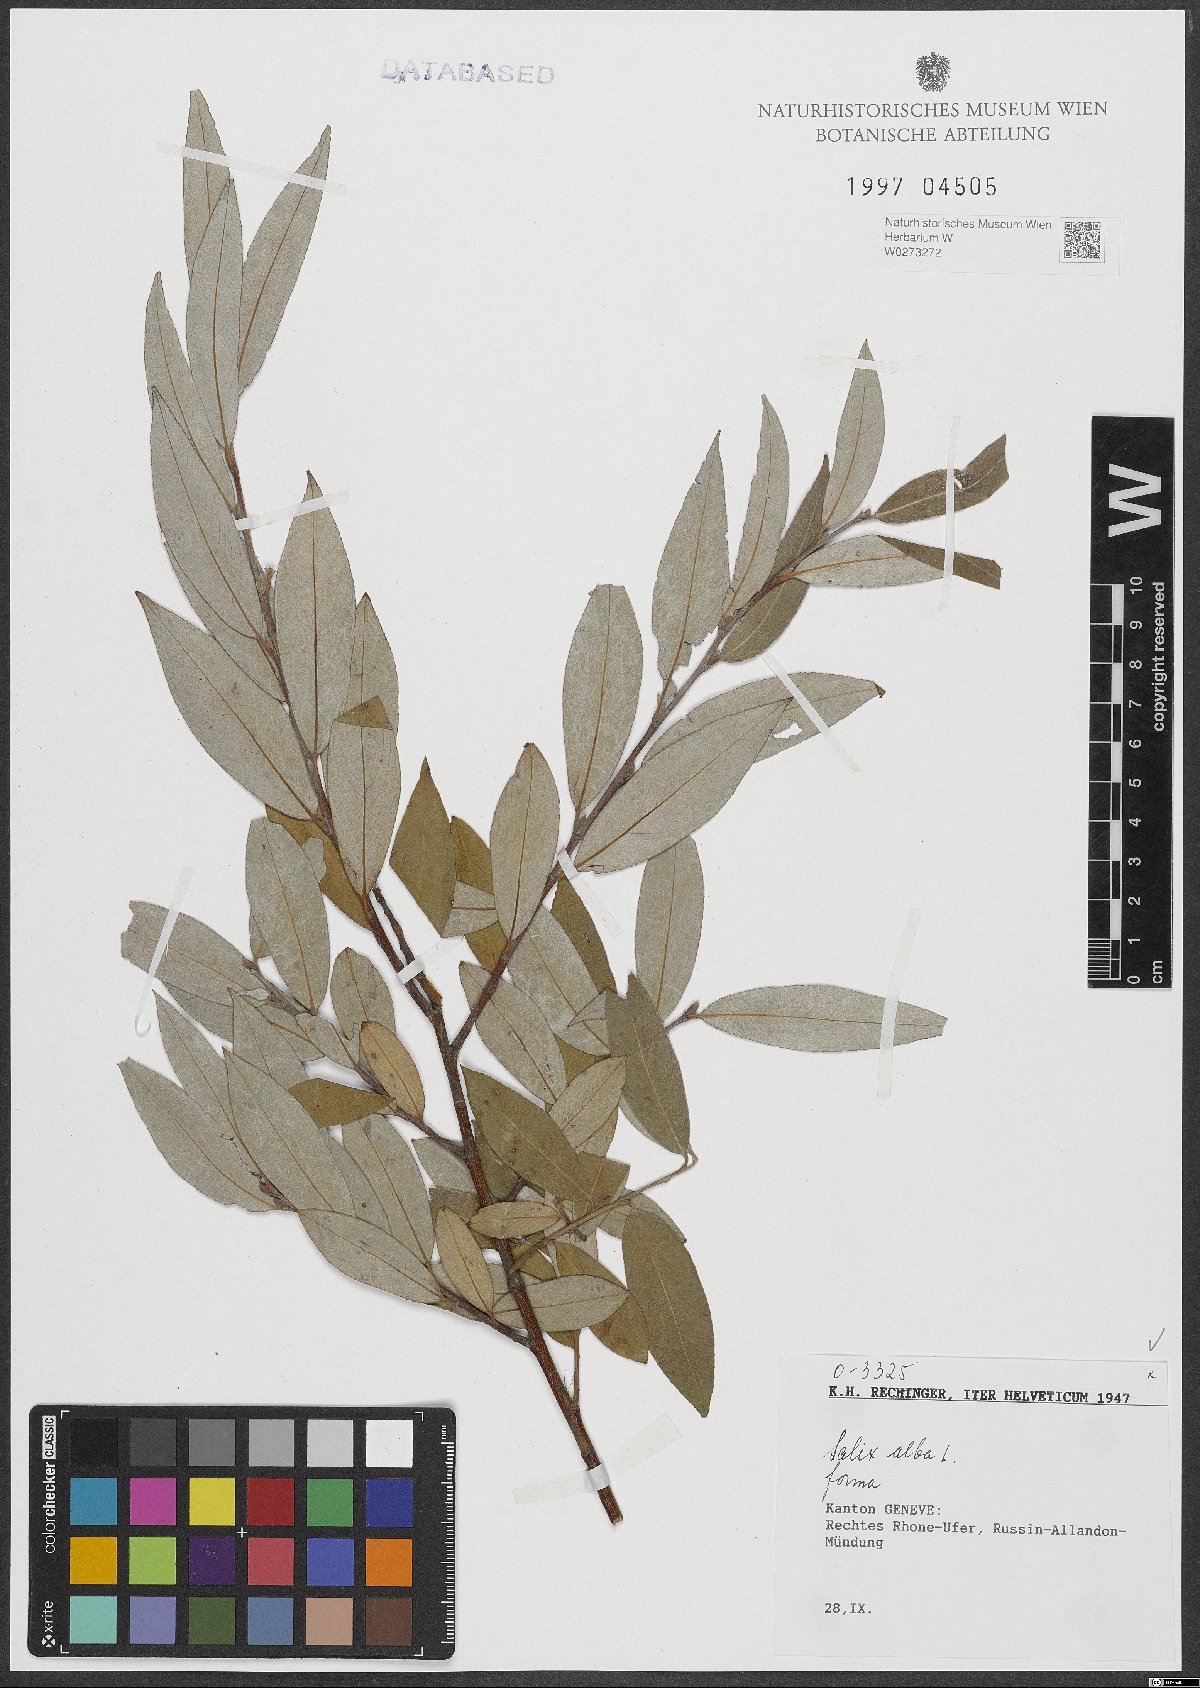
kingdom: Plantae
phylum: Tracheophyta
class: Magnoliopsida
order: Malpighiales
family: Salicaceae
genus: Salix
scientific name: Salix alba
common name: White willow
